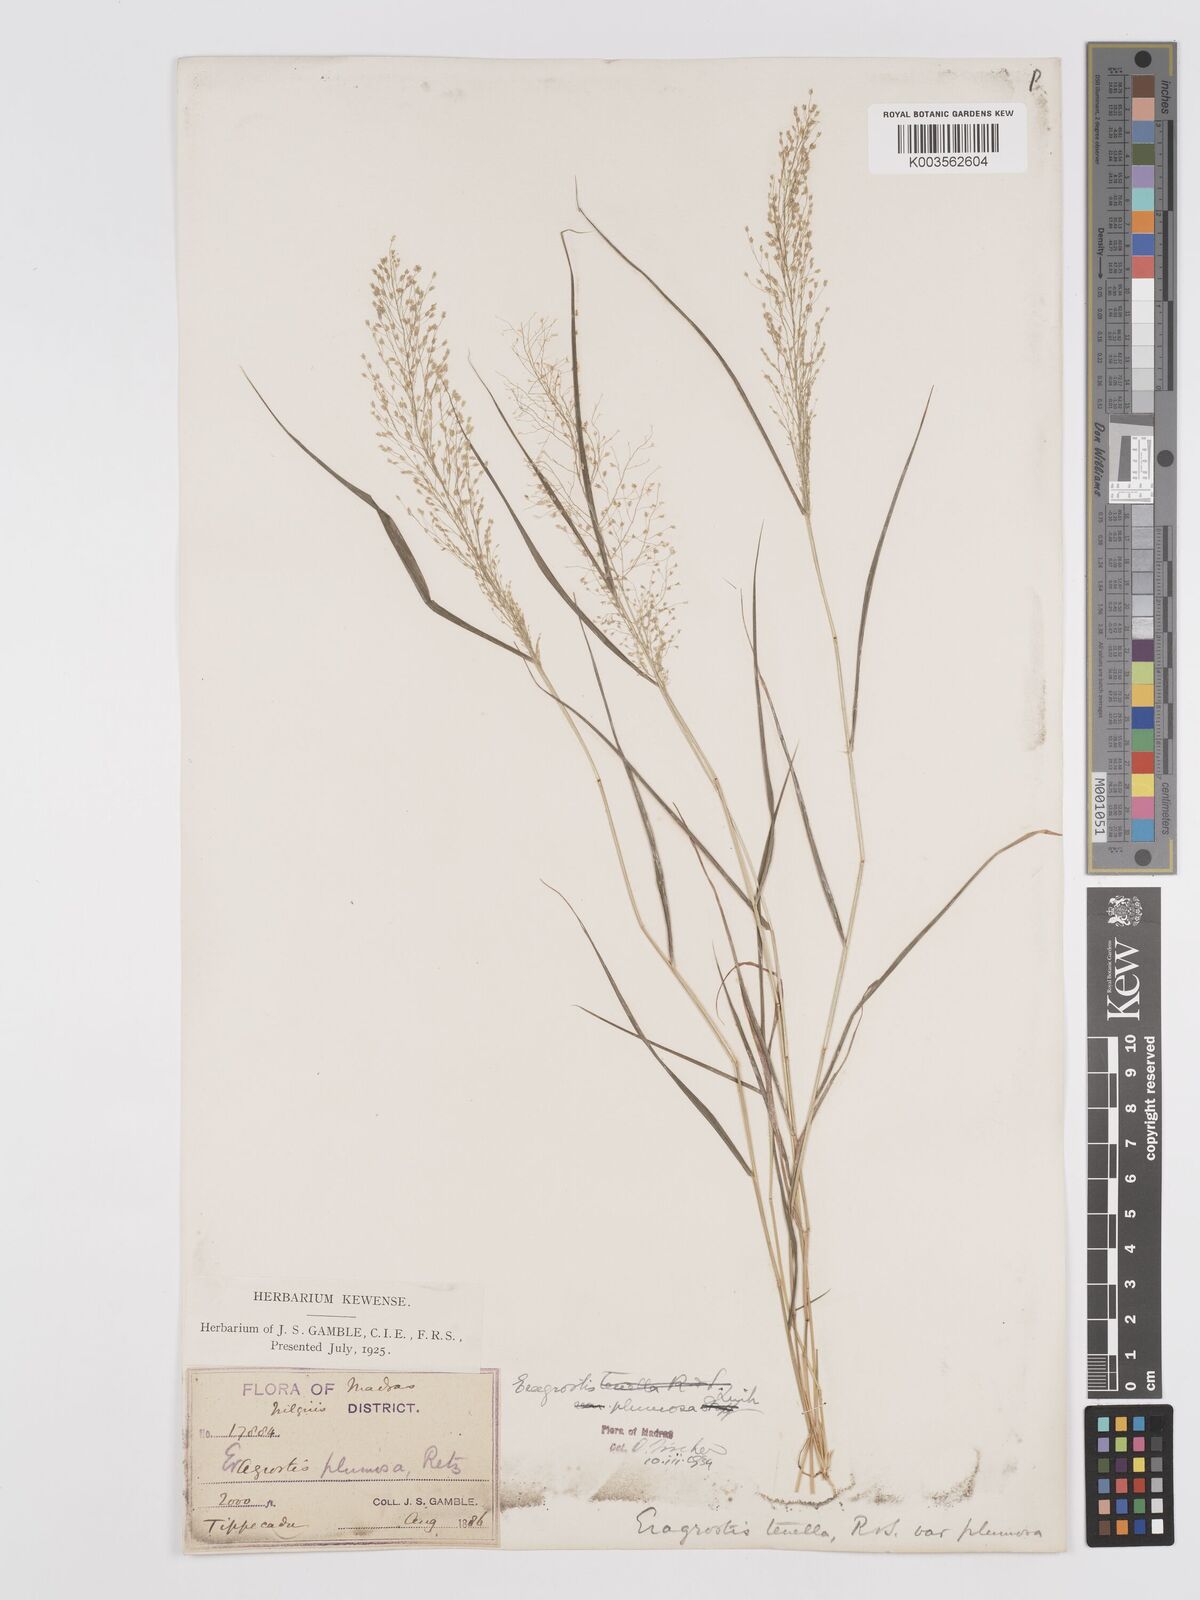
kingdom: Plantae
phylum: Tracheophyta
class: Liliopsida
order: Poales
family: Poaceae
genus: Eragrostis
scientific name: Eragrostis tenella
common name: Japanese lovegrass
